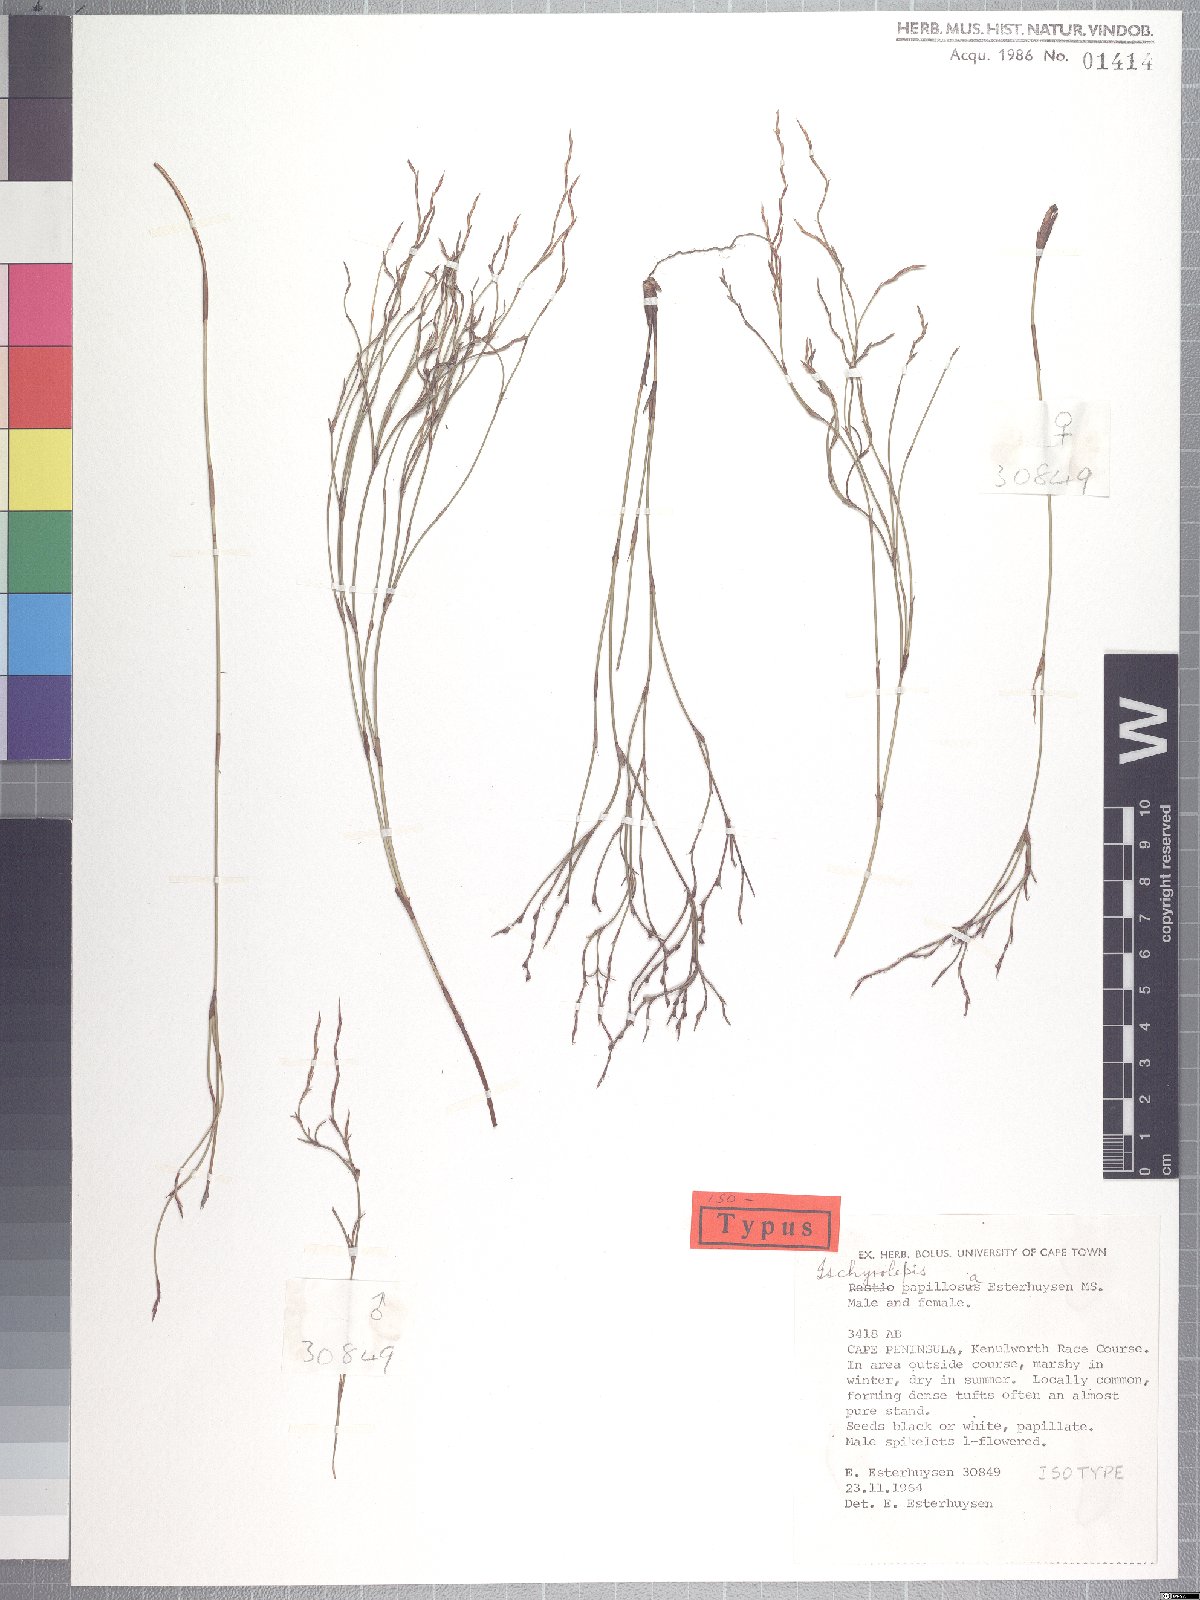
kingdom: Plantae
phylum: Tracheophyta
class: Liliopsida
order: Poales
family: Restionaceae
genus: Restio
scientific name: Restio papillosus
